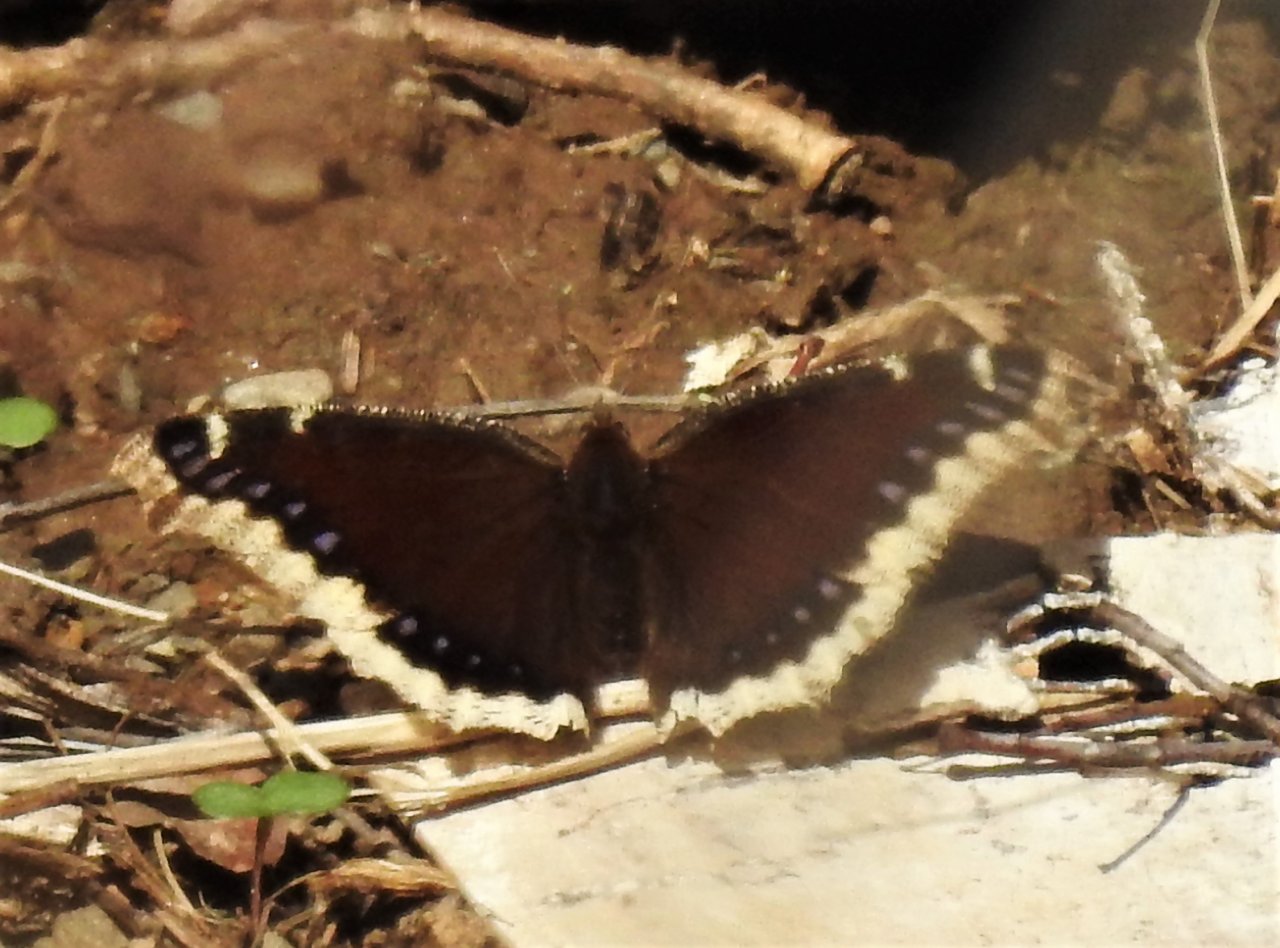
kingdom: Animalia
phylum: Arthropoda
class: Insecta
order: Lepidoptera
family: Nymphalidae
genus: Nymphalis
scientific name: Nymphalis antiopa
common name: Mourning Cloak
